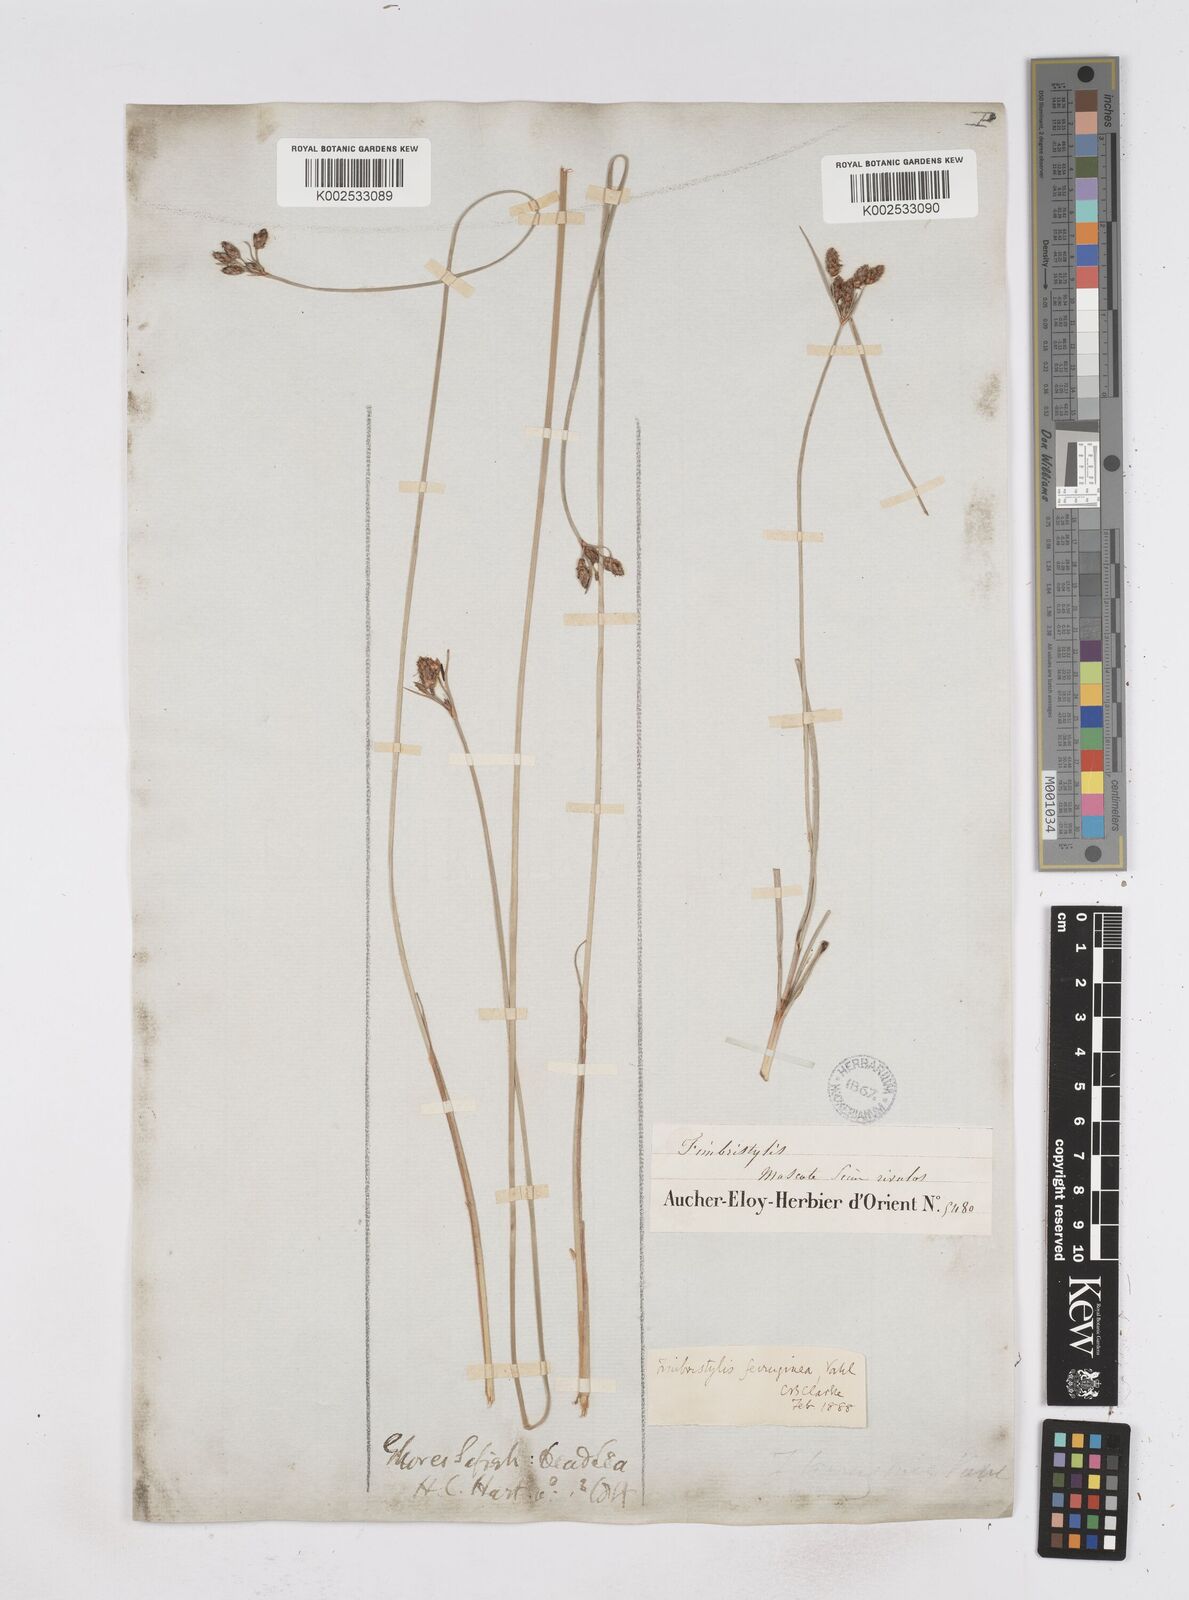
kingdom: Plantae
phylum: Tracheophyta
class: Liliopsida
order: Poales
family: Cyperaceae
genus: Fimbristylis
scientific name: Fimbristylis ferruginea
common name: West indian fimbry
